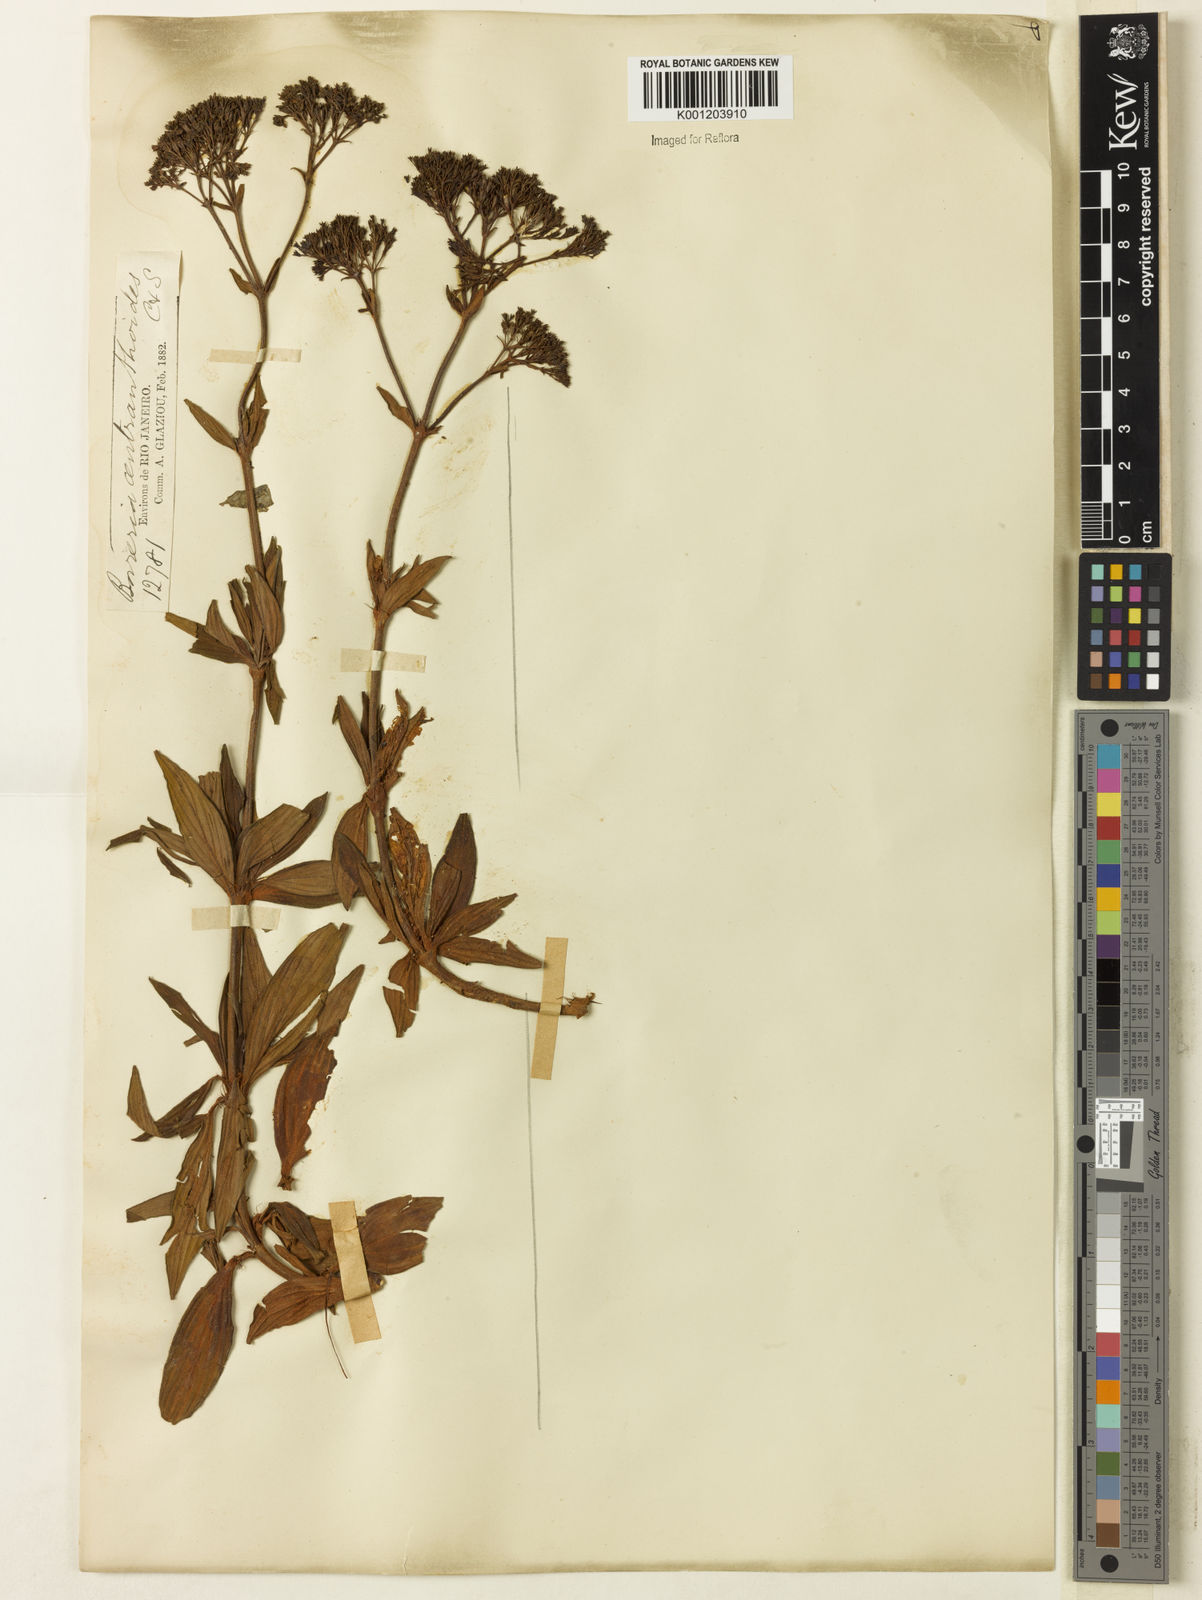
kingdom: Plantae
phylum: Tracheophyta
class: Magnoliopsida
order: Gentianales
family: Rubiaceae
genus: Galianthe
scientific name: Galianthe centranthoides
